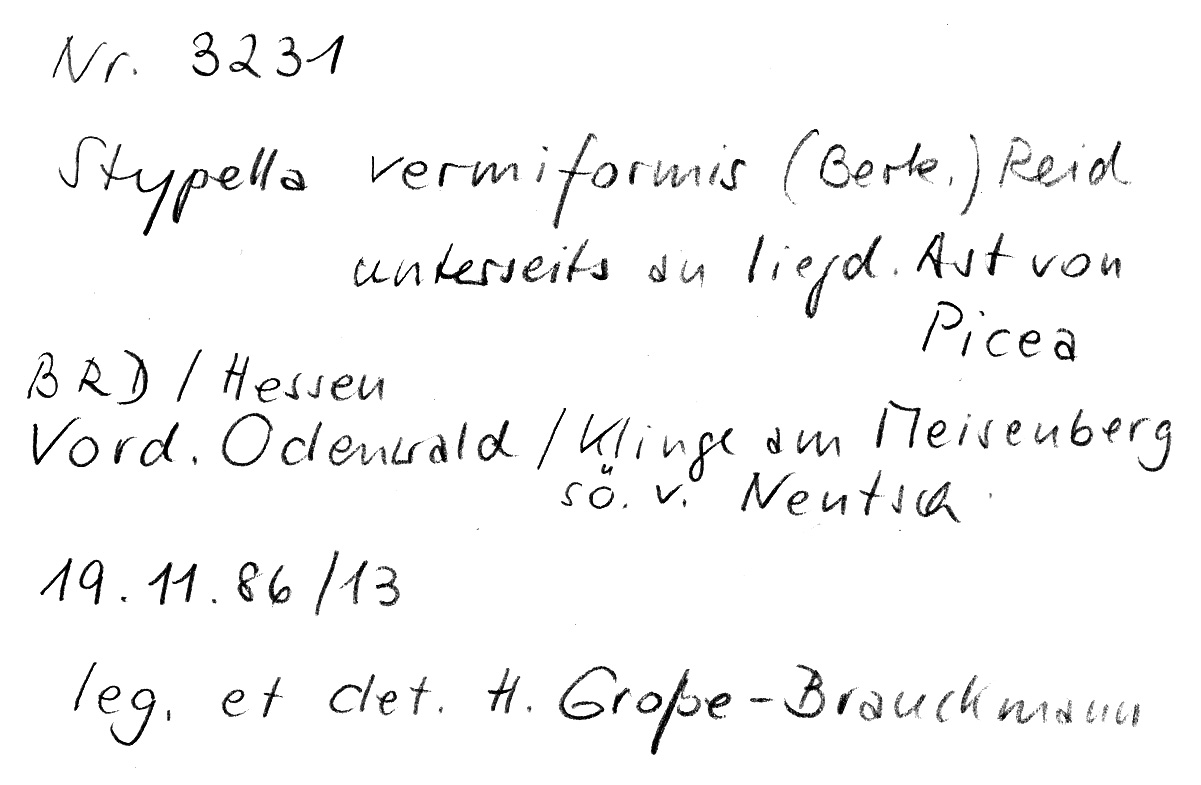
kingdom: Plantae
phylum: Tracheophyta
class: Pinopsida
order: Pinales
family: Pinaceae
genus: Picea
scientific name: Picea
